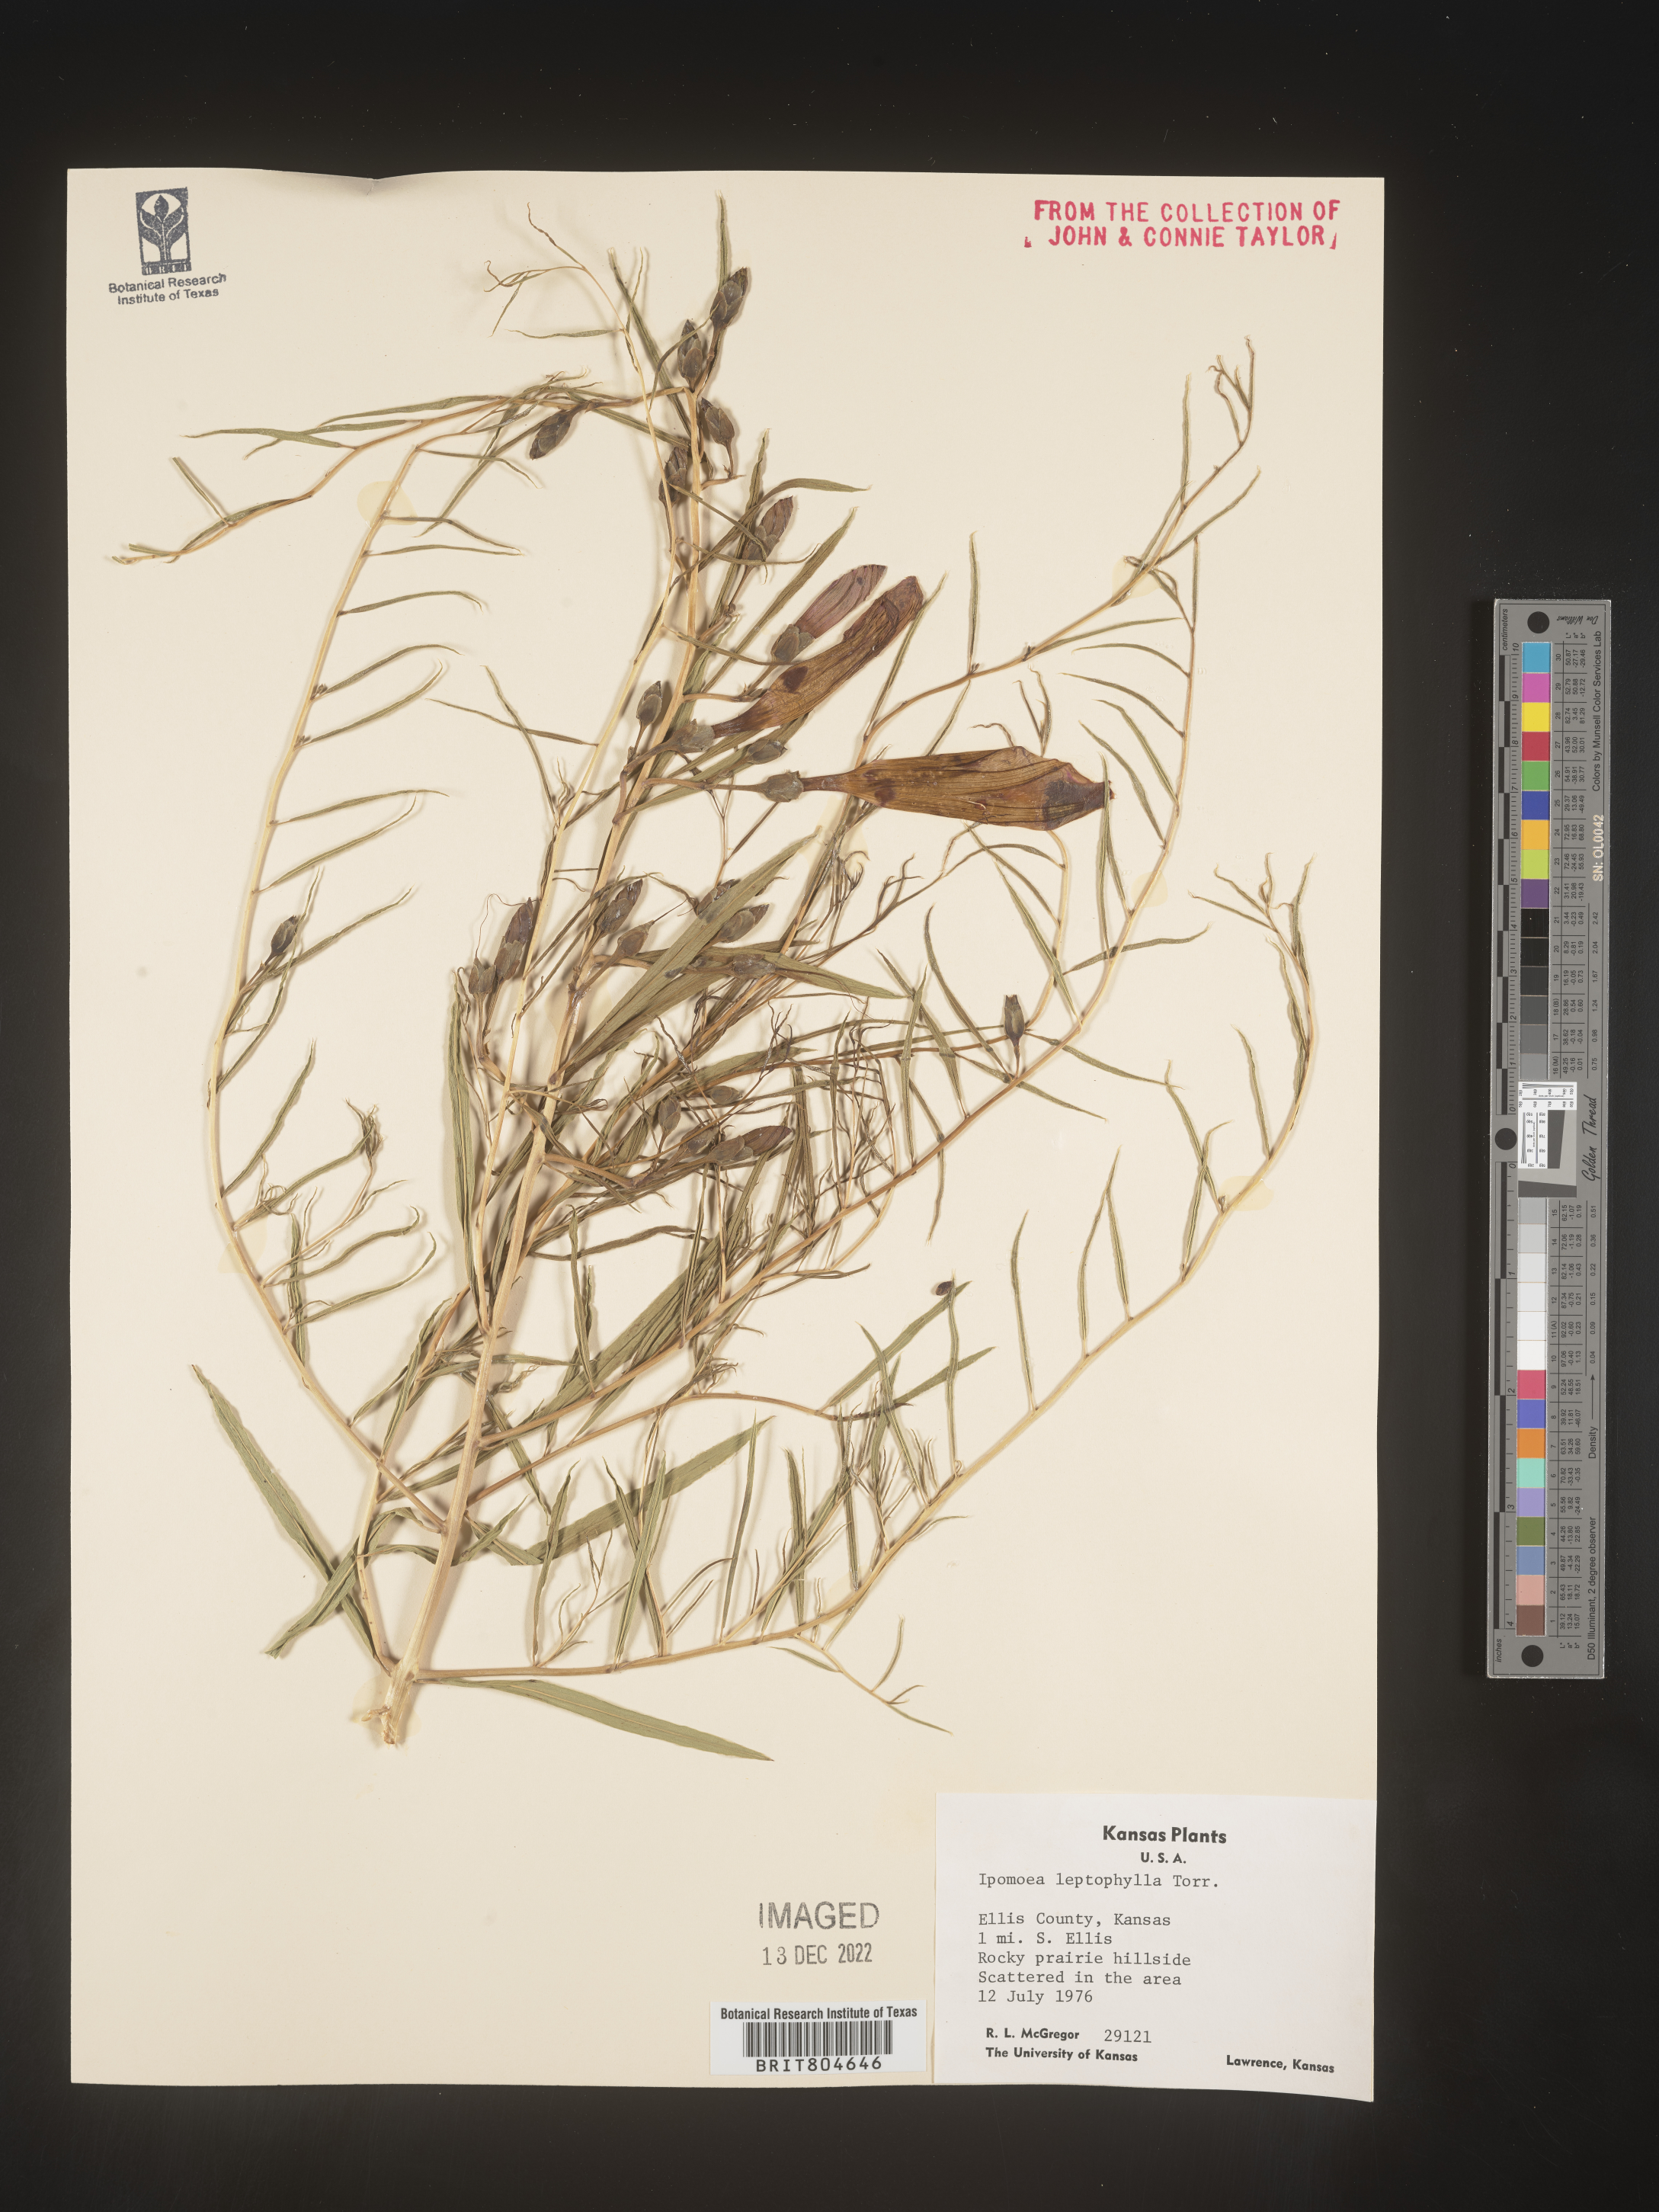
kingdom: Plantae
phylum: Tracheophyta
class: Magnoliopsida
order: Solanales
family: Convolvulaceae
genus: Ipomoea
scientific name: Ipomoea leptophylla
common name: Bush moonflower
